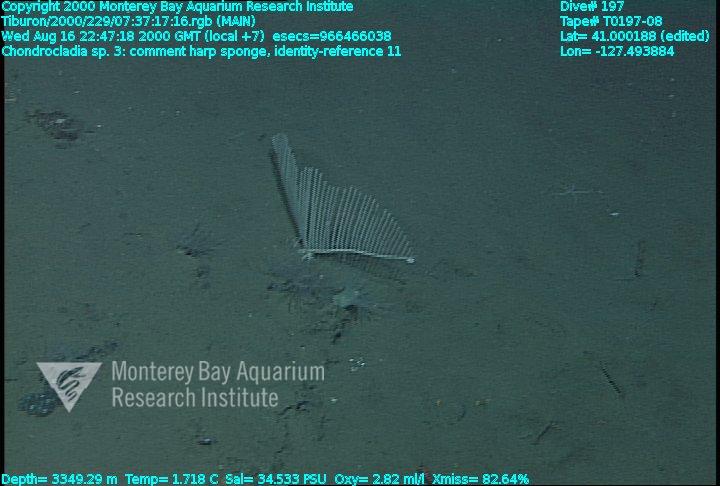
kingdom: Animalia
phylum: Porifera
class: Demospongiae
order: Poecilosclerida
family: Cladorhizidae
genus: Chondrocladia
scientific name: Chondrocladia lyra
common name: Harp sponge
